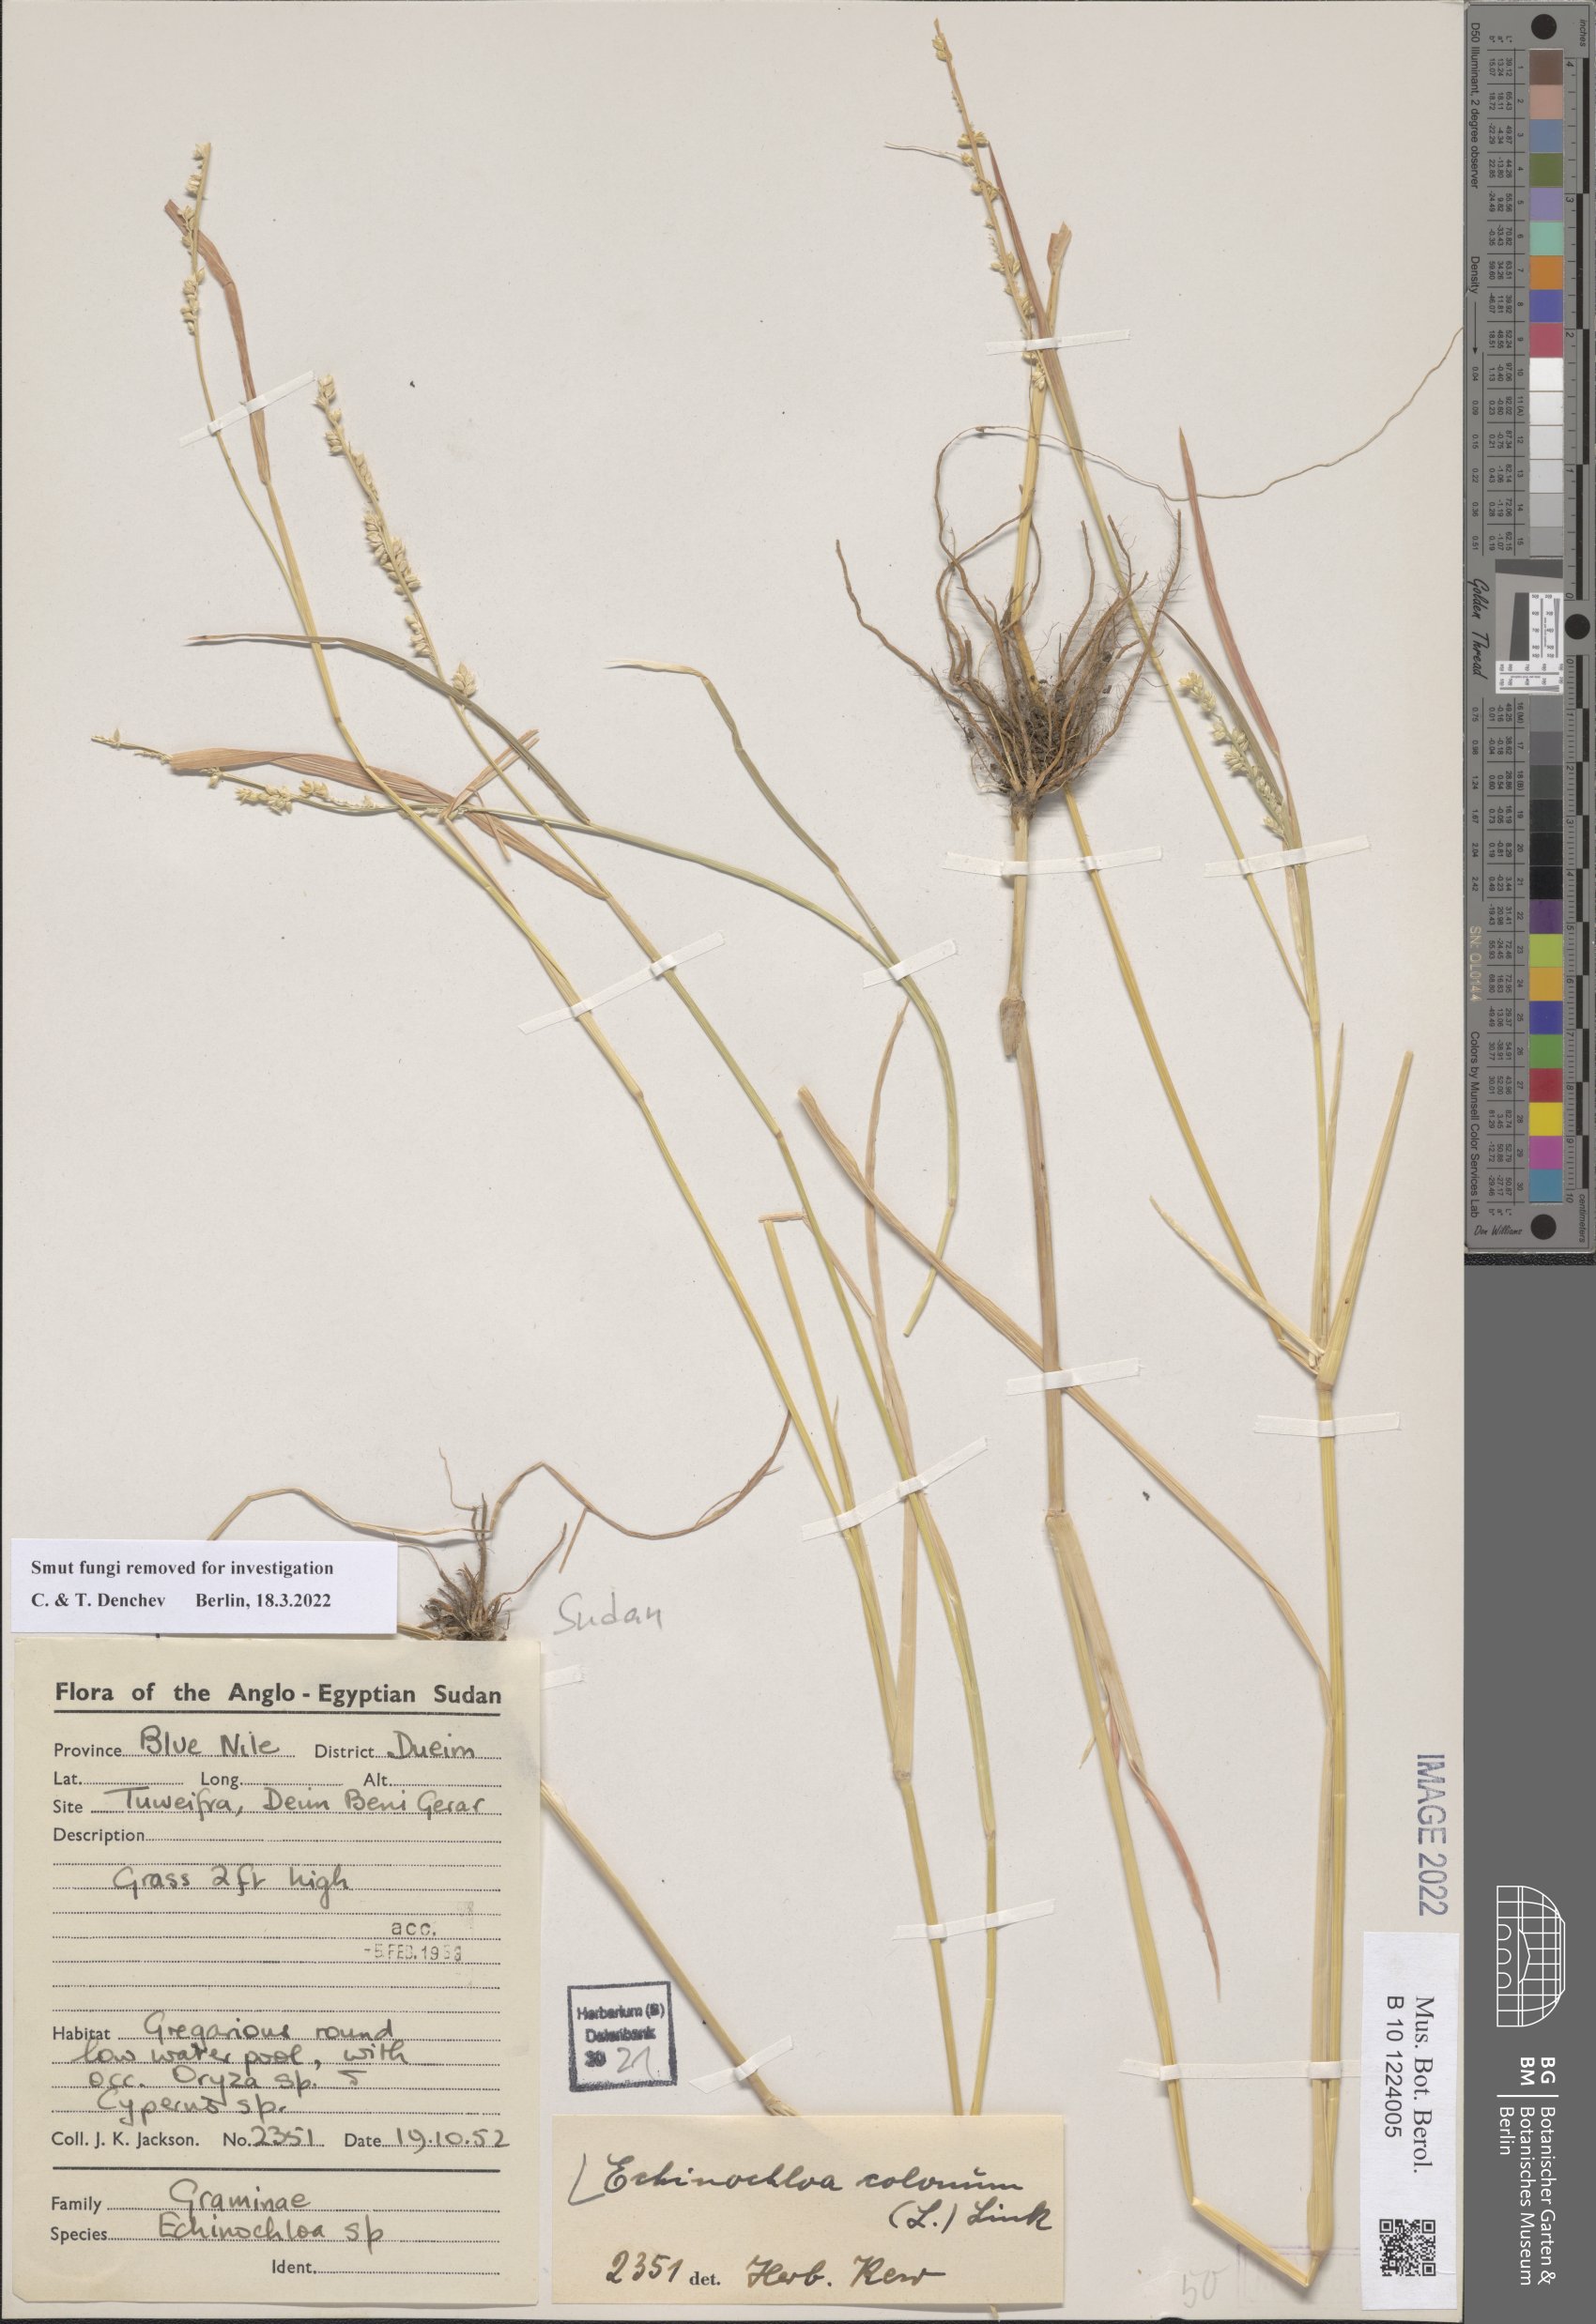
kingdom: Plantae
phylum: Tracheophyta
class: Liliopsida
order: Poales
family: Poaceae
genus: Echinochloa
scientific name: Echinochloa colonum
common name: Jungle rice
